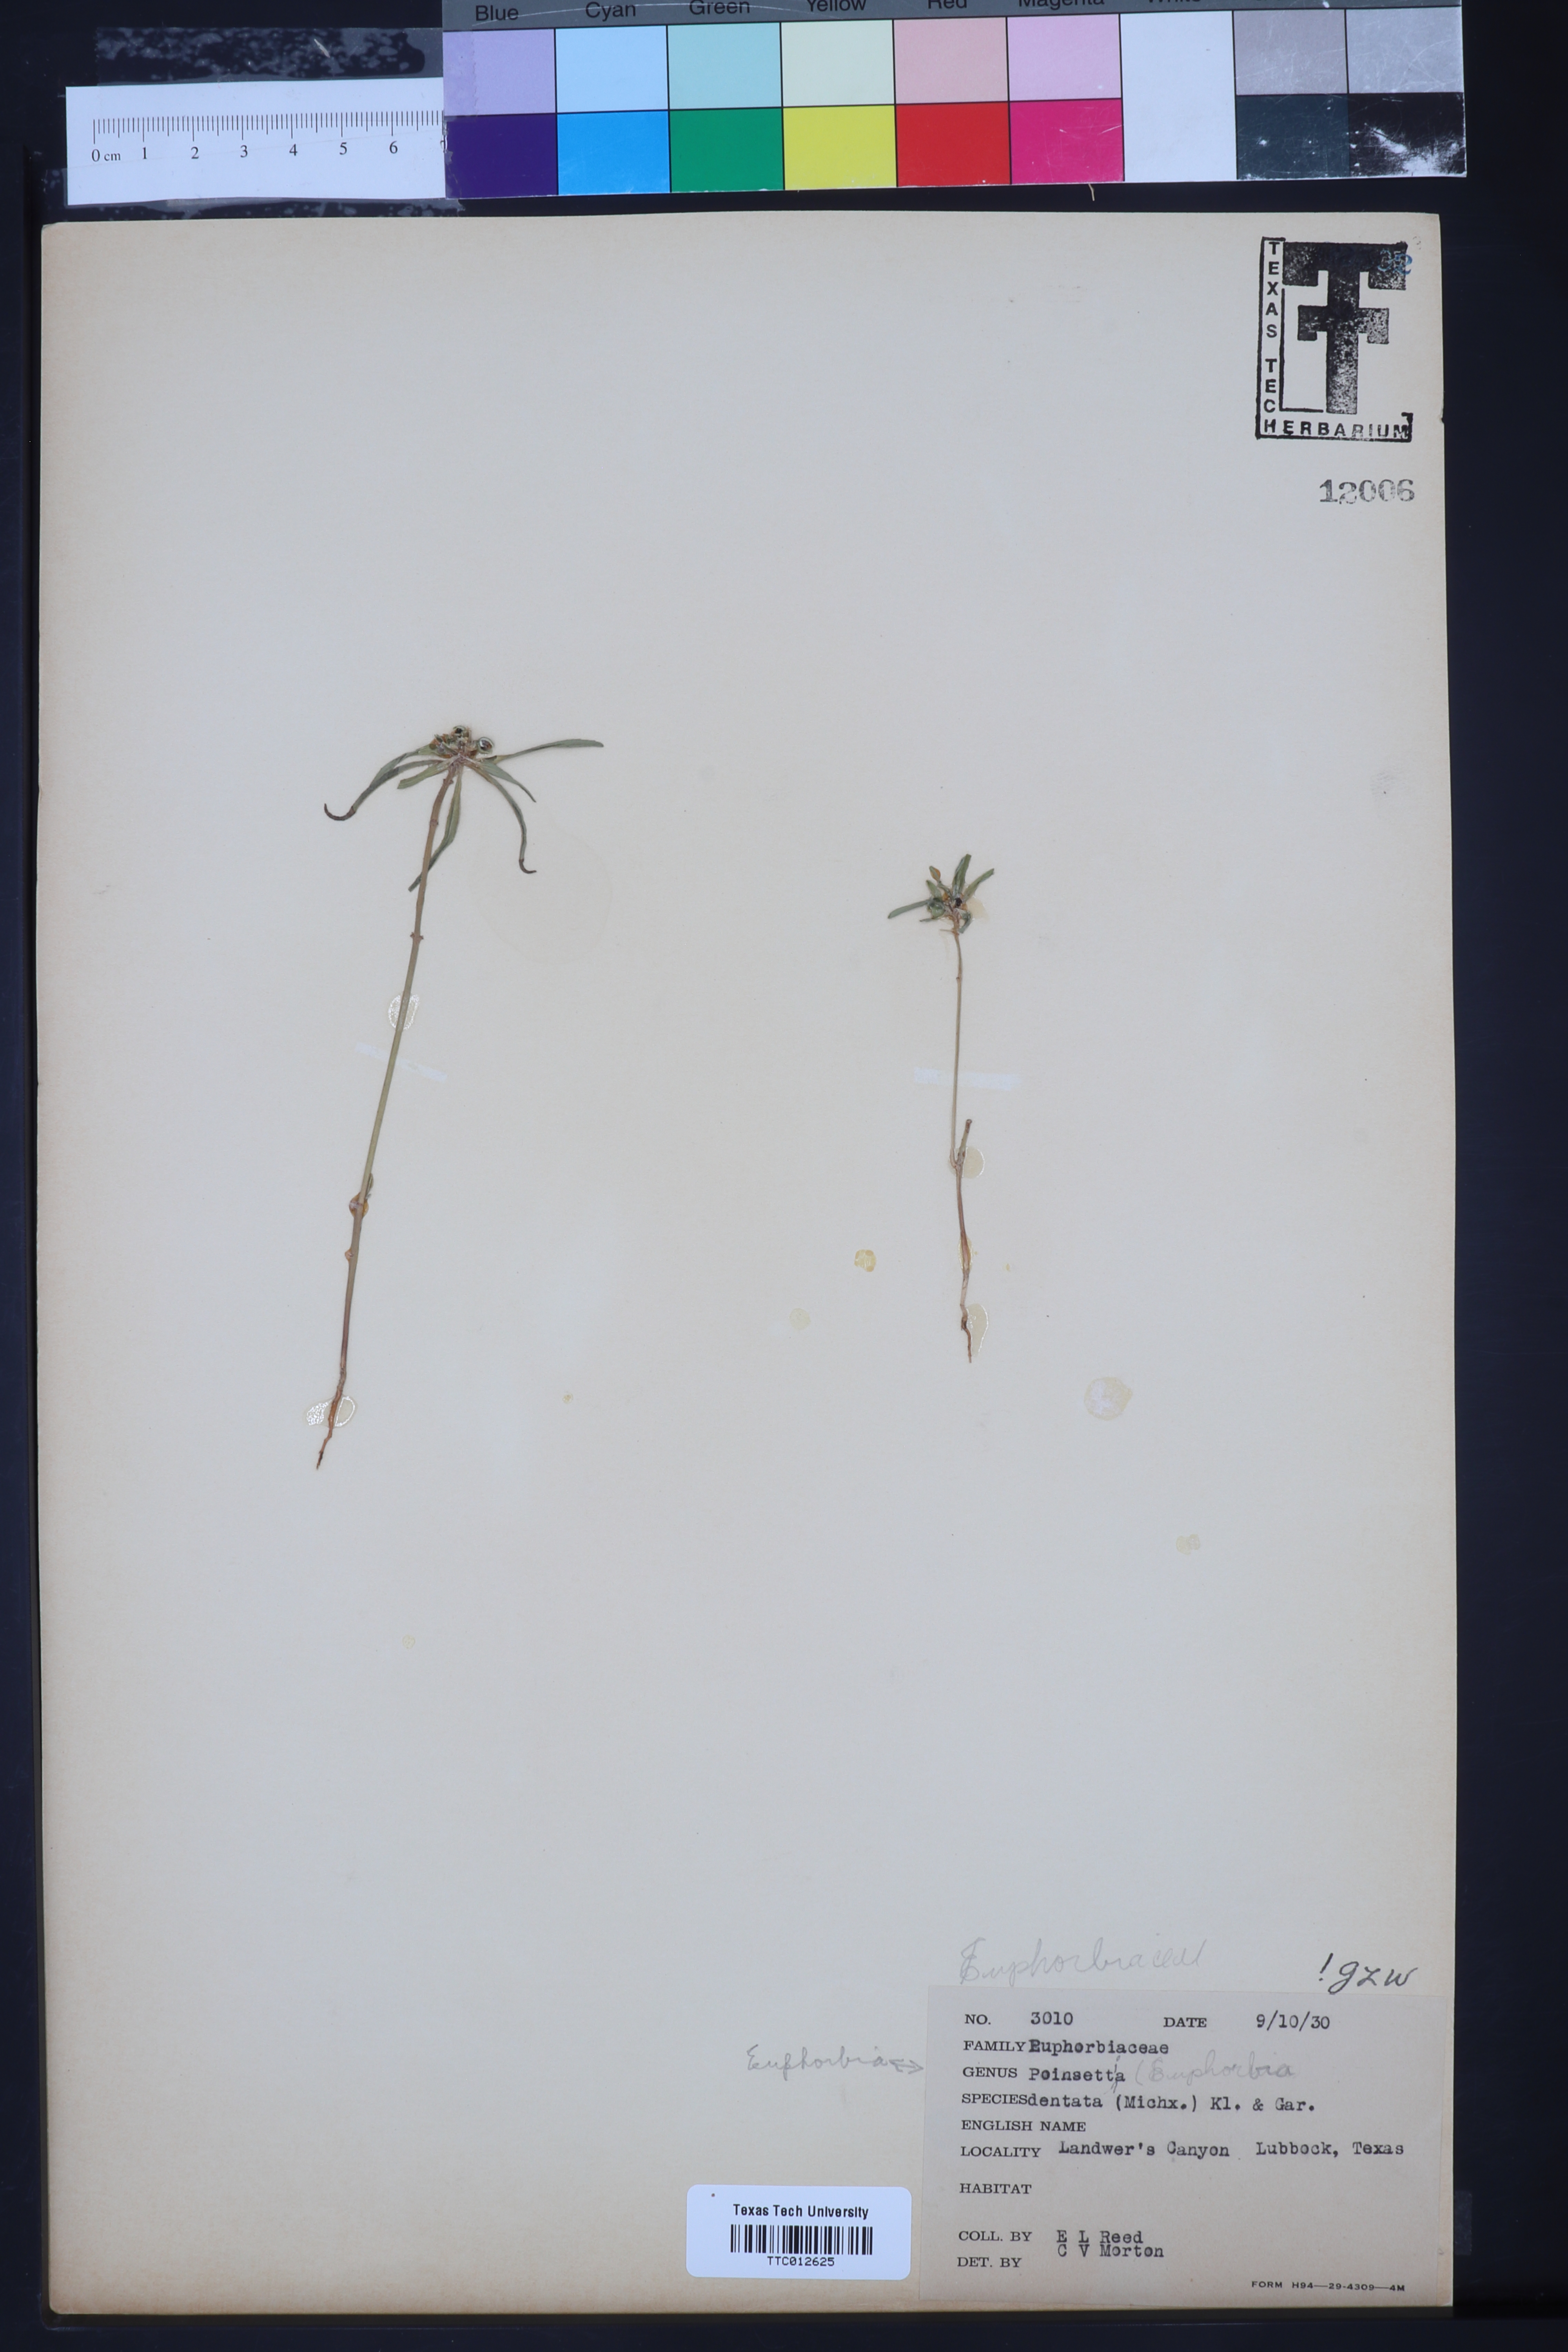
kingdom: Plantae
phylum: Tracheophyta
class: Magnoliopsida
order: Malpighiales
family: Euphorbiaceae
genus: Euphorbia
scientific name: Euphorbia dentata
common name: Dentate spurge
